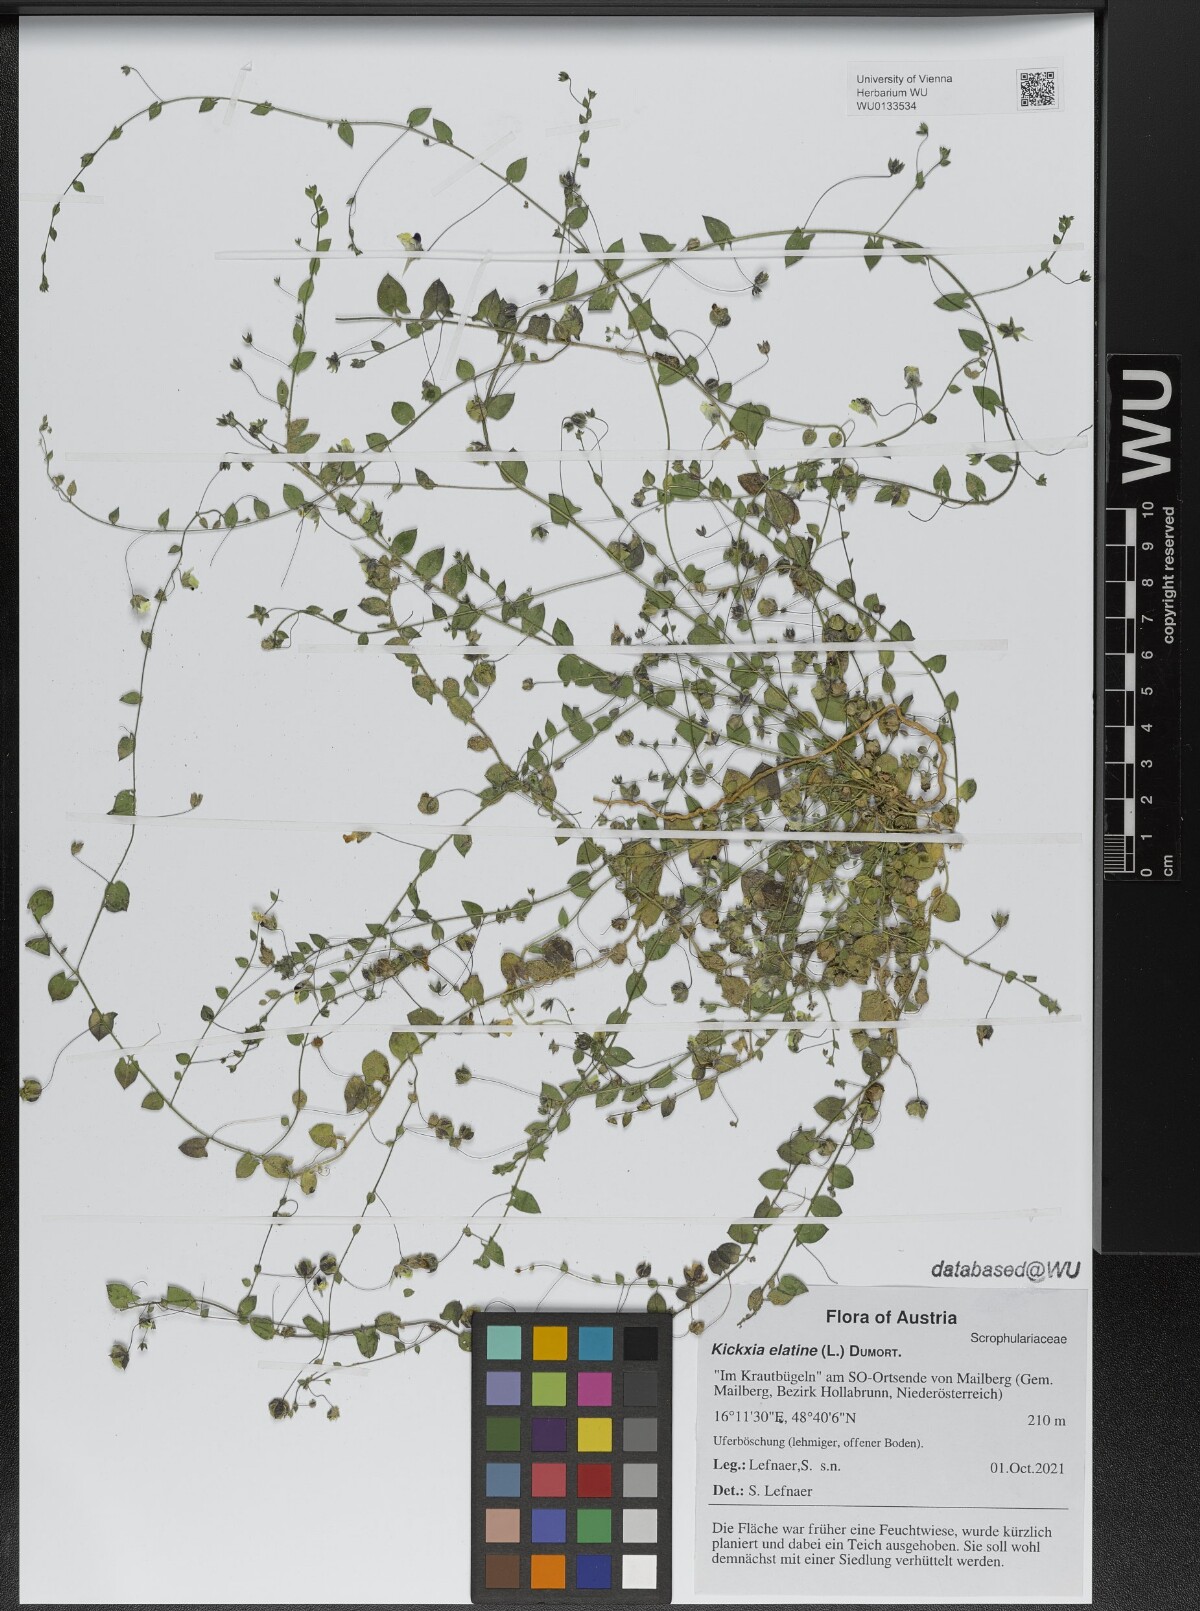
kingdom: Plantae
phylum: Tracheophyta
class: Magnoliopsida
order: Lamiales
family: Plantaginaceae
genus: Kickxia
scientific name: Kickxia elatine
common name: Sharp-leaved fluellen
